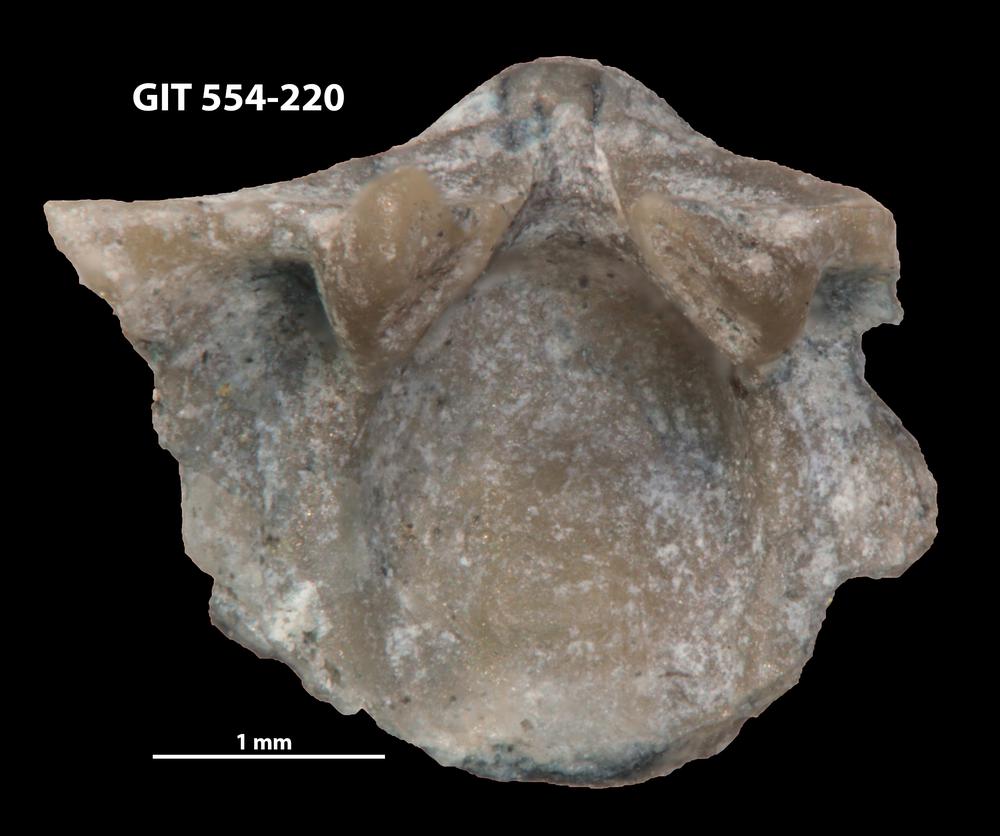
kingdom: Animalia
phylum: Brachiopoda
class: Rhynchonellata
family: Dalmanellidae
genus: Ravozetina
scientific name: Ravozetina
